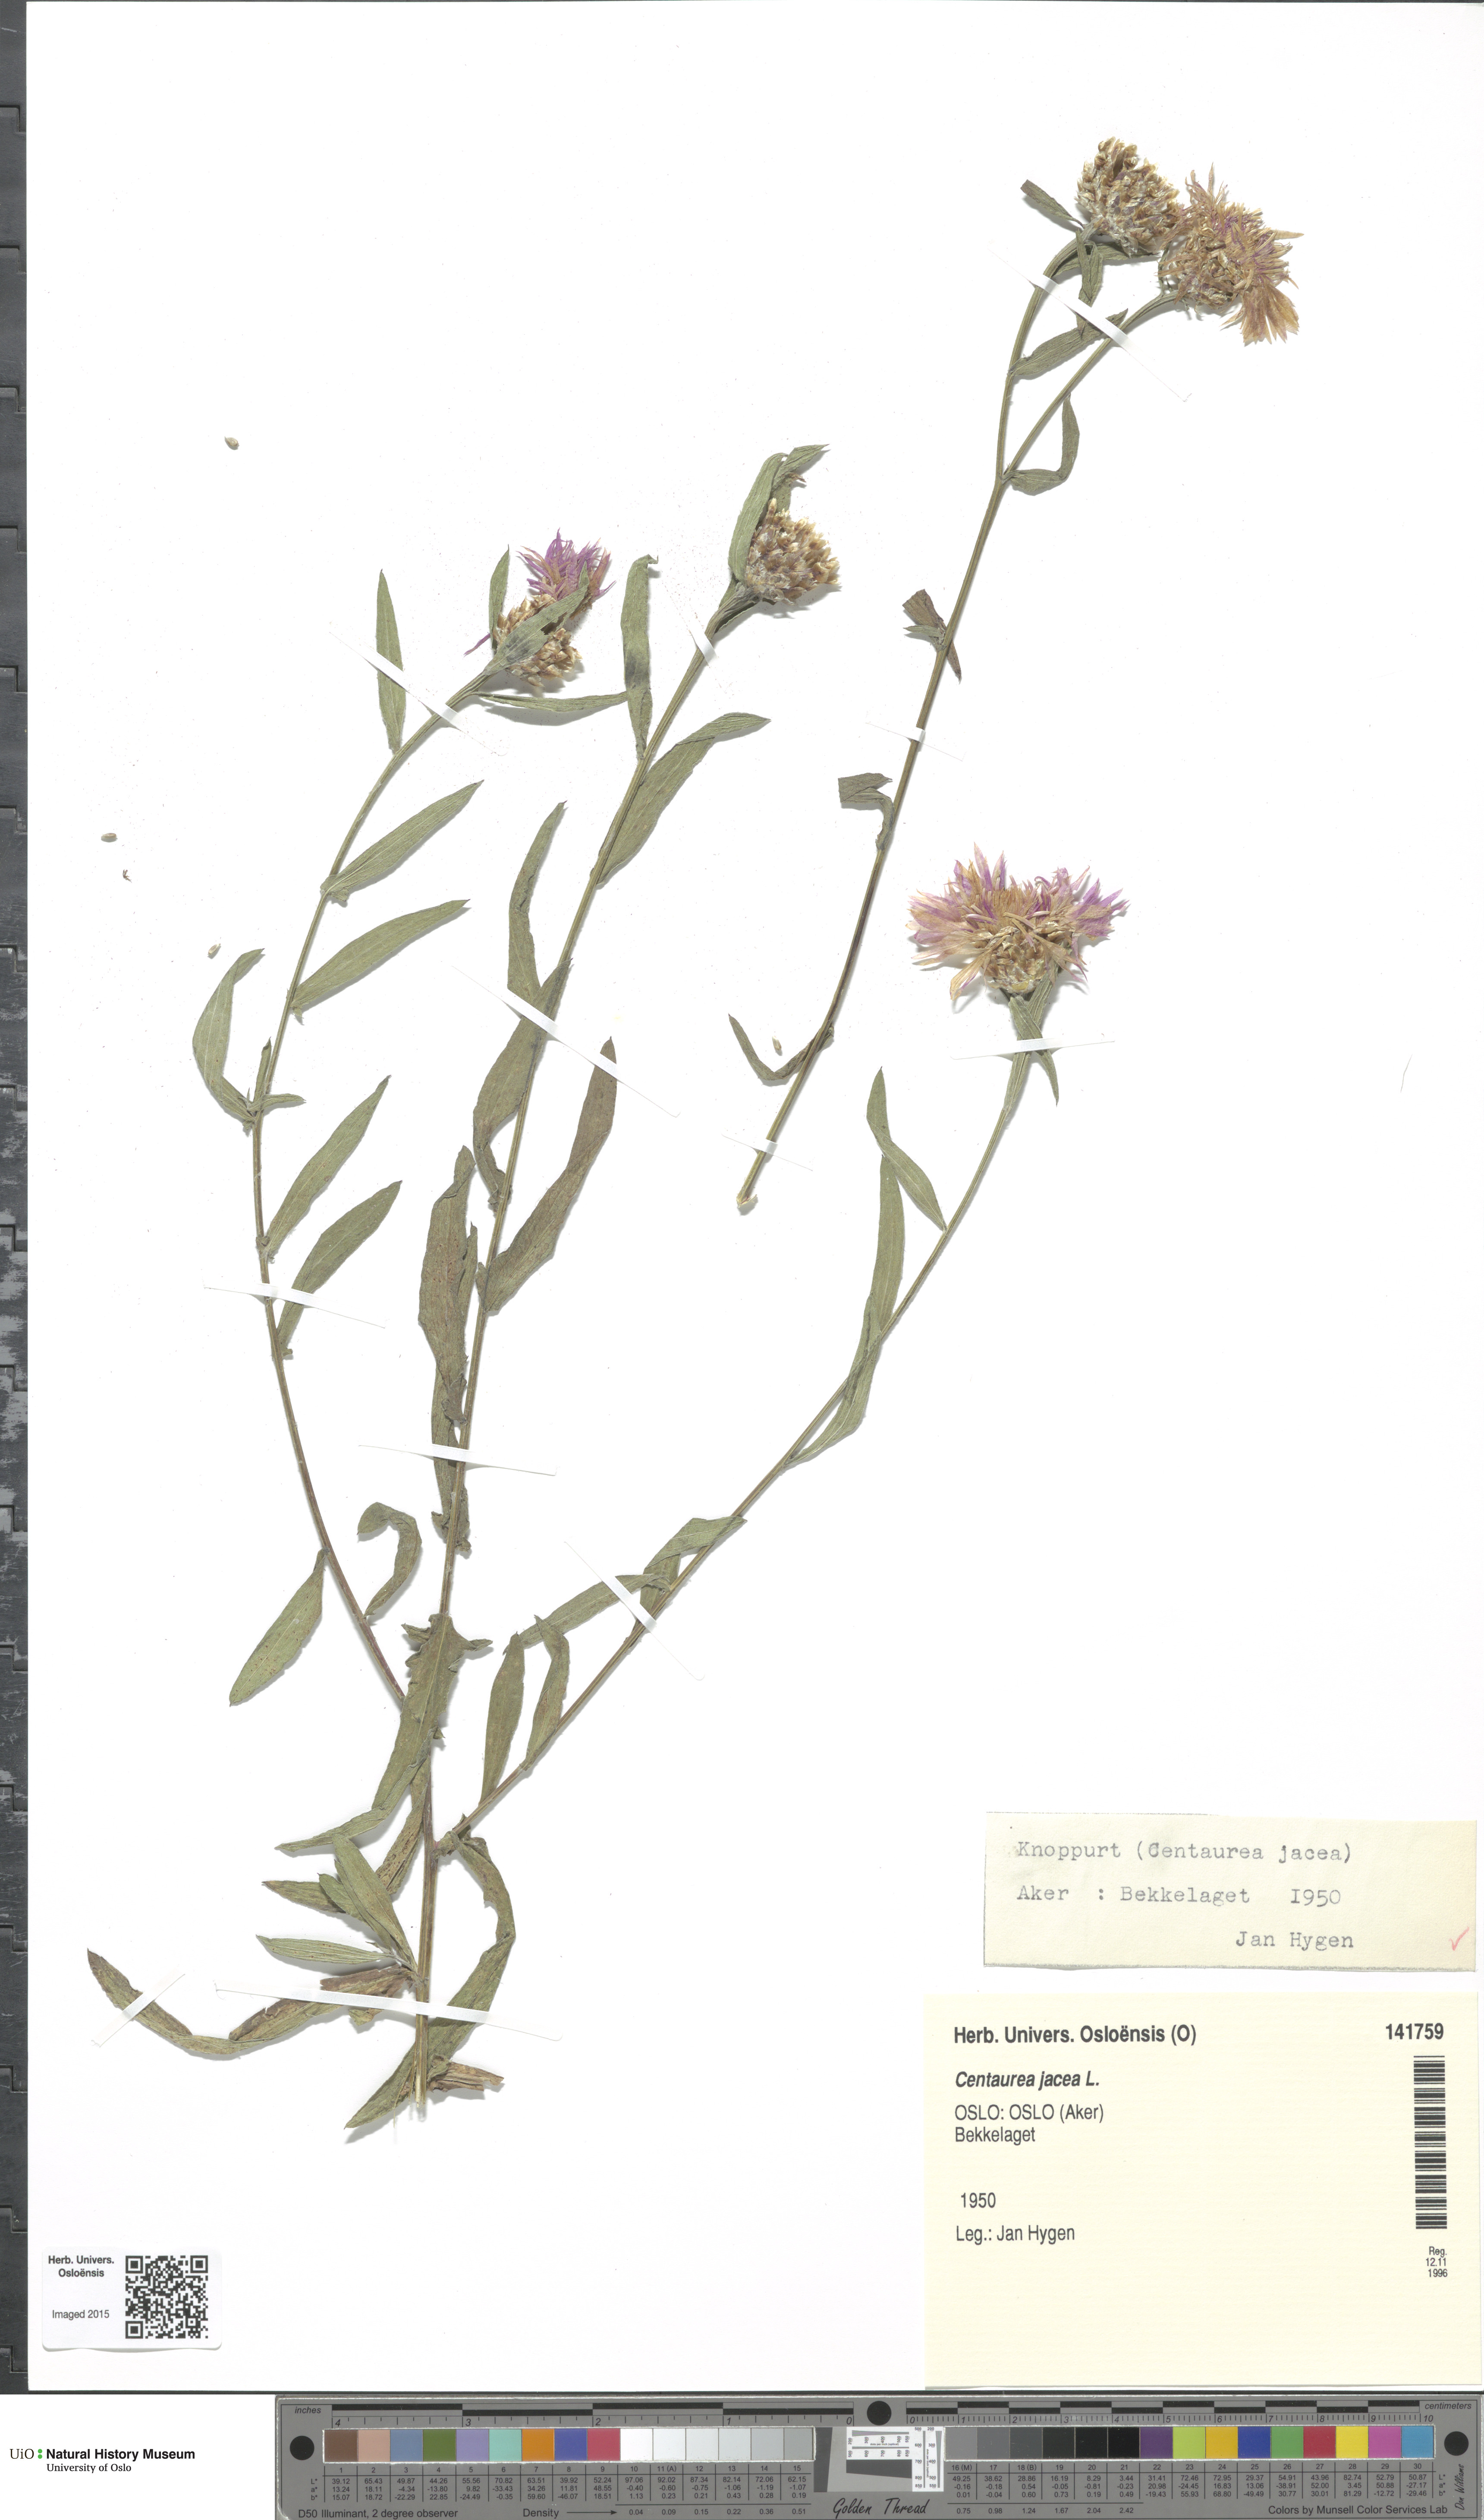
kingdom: Plantae
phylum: Tracheophyta
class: Magnoliopsida
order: Asterales
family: Asteraceae
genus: Centaurea
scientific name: Centaurea jacea
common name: Brown knapweed
